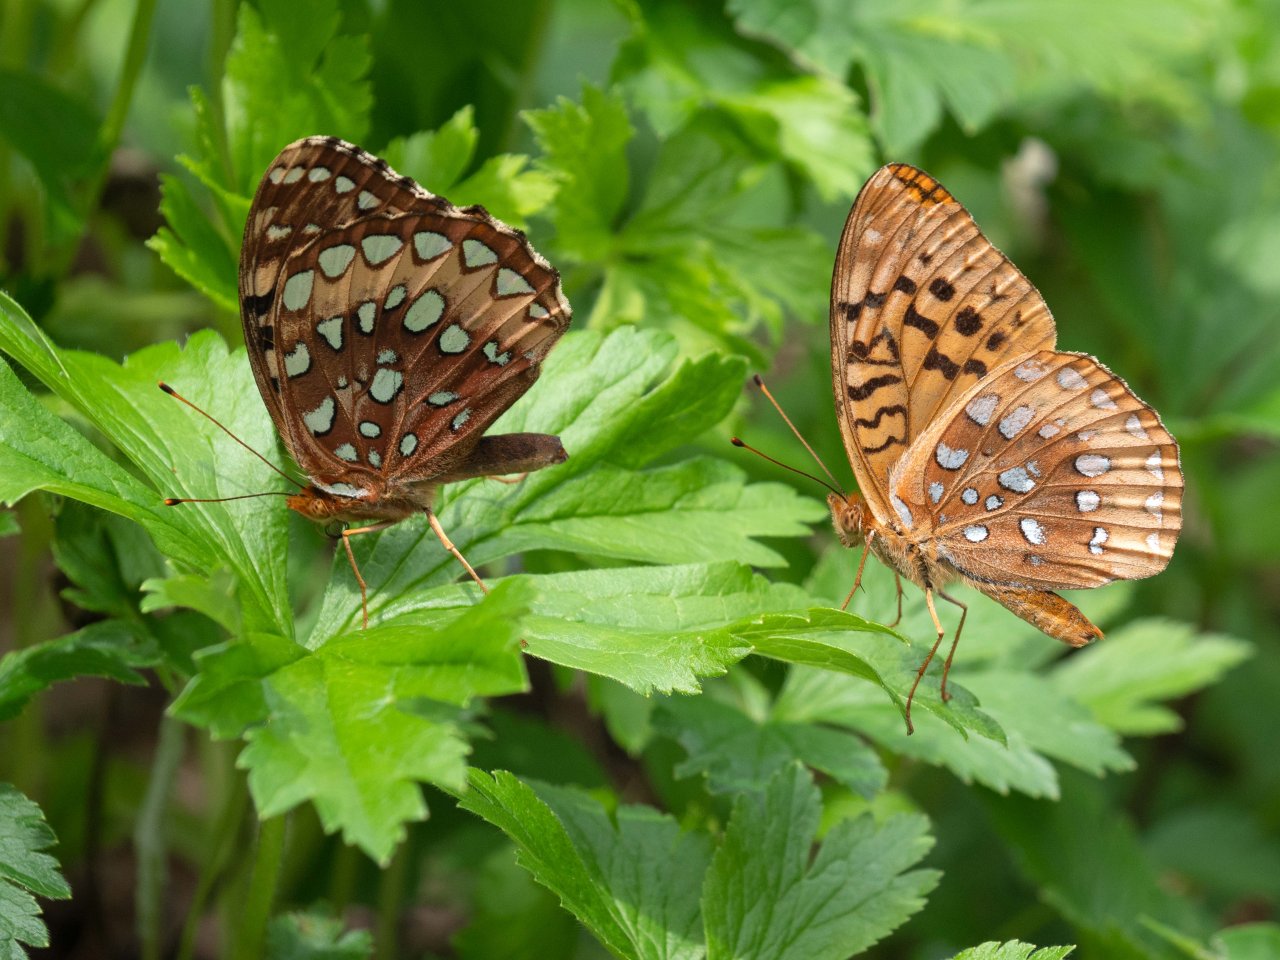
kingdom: Animalia
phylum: Arthropoda
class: Insecta
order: Lepidoptera
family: Nymphalidae
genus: Speyeria
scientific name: Speyeria cybele
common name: Great Spangled Fritillary
